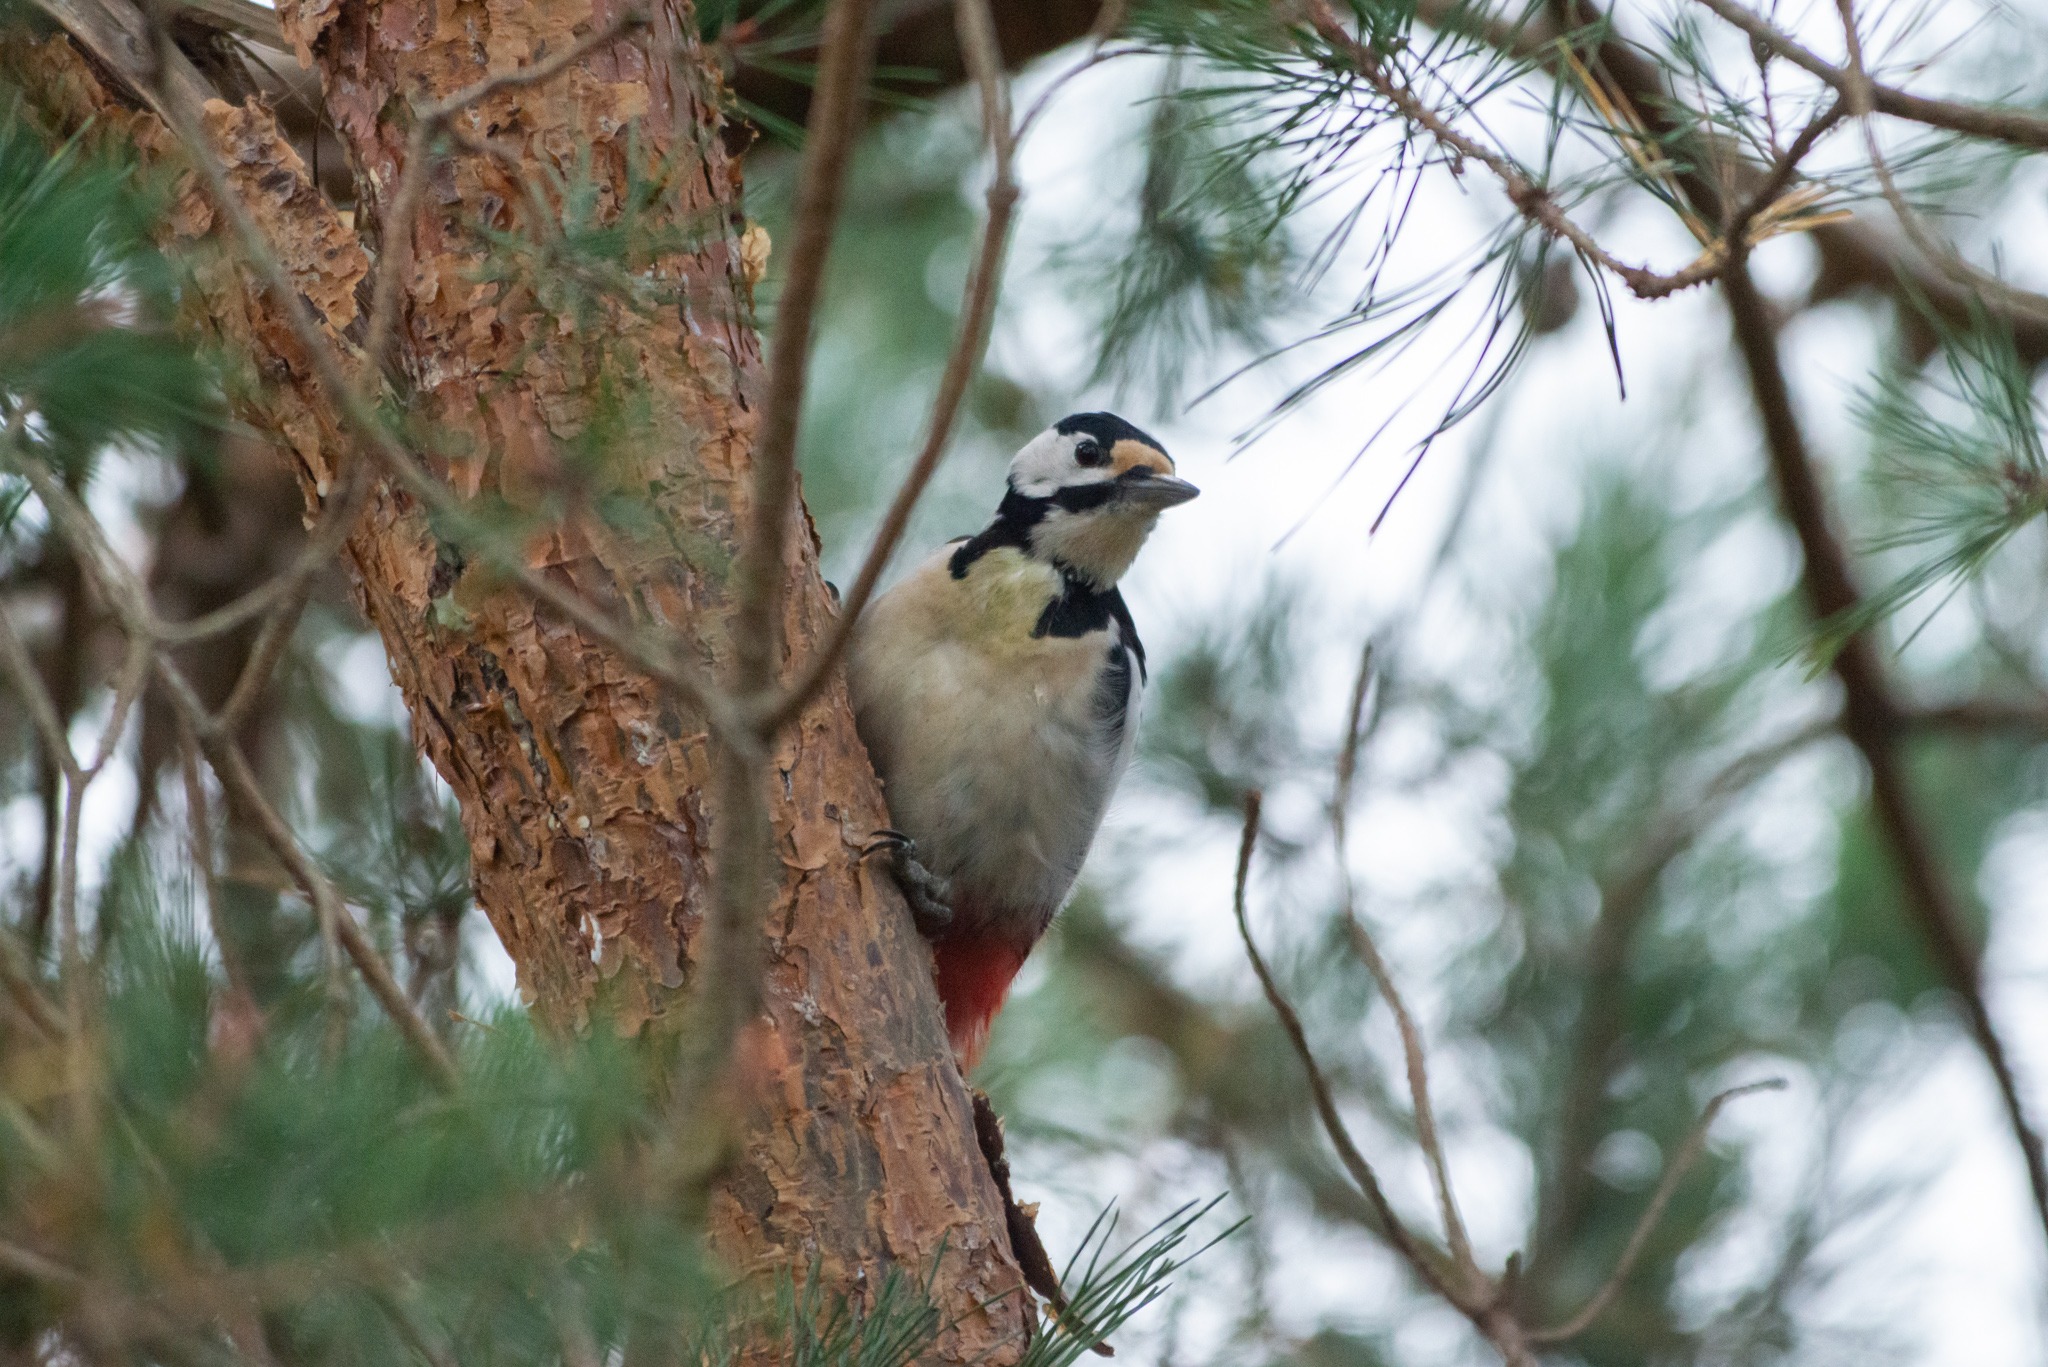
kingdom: Animalia
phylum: Chordata
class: Aves
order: Piciformes
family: Picidae
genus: Dendrocopos
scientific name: Dendrocopos major
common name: Stor flagspætte
